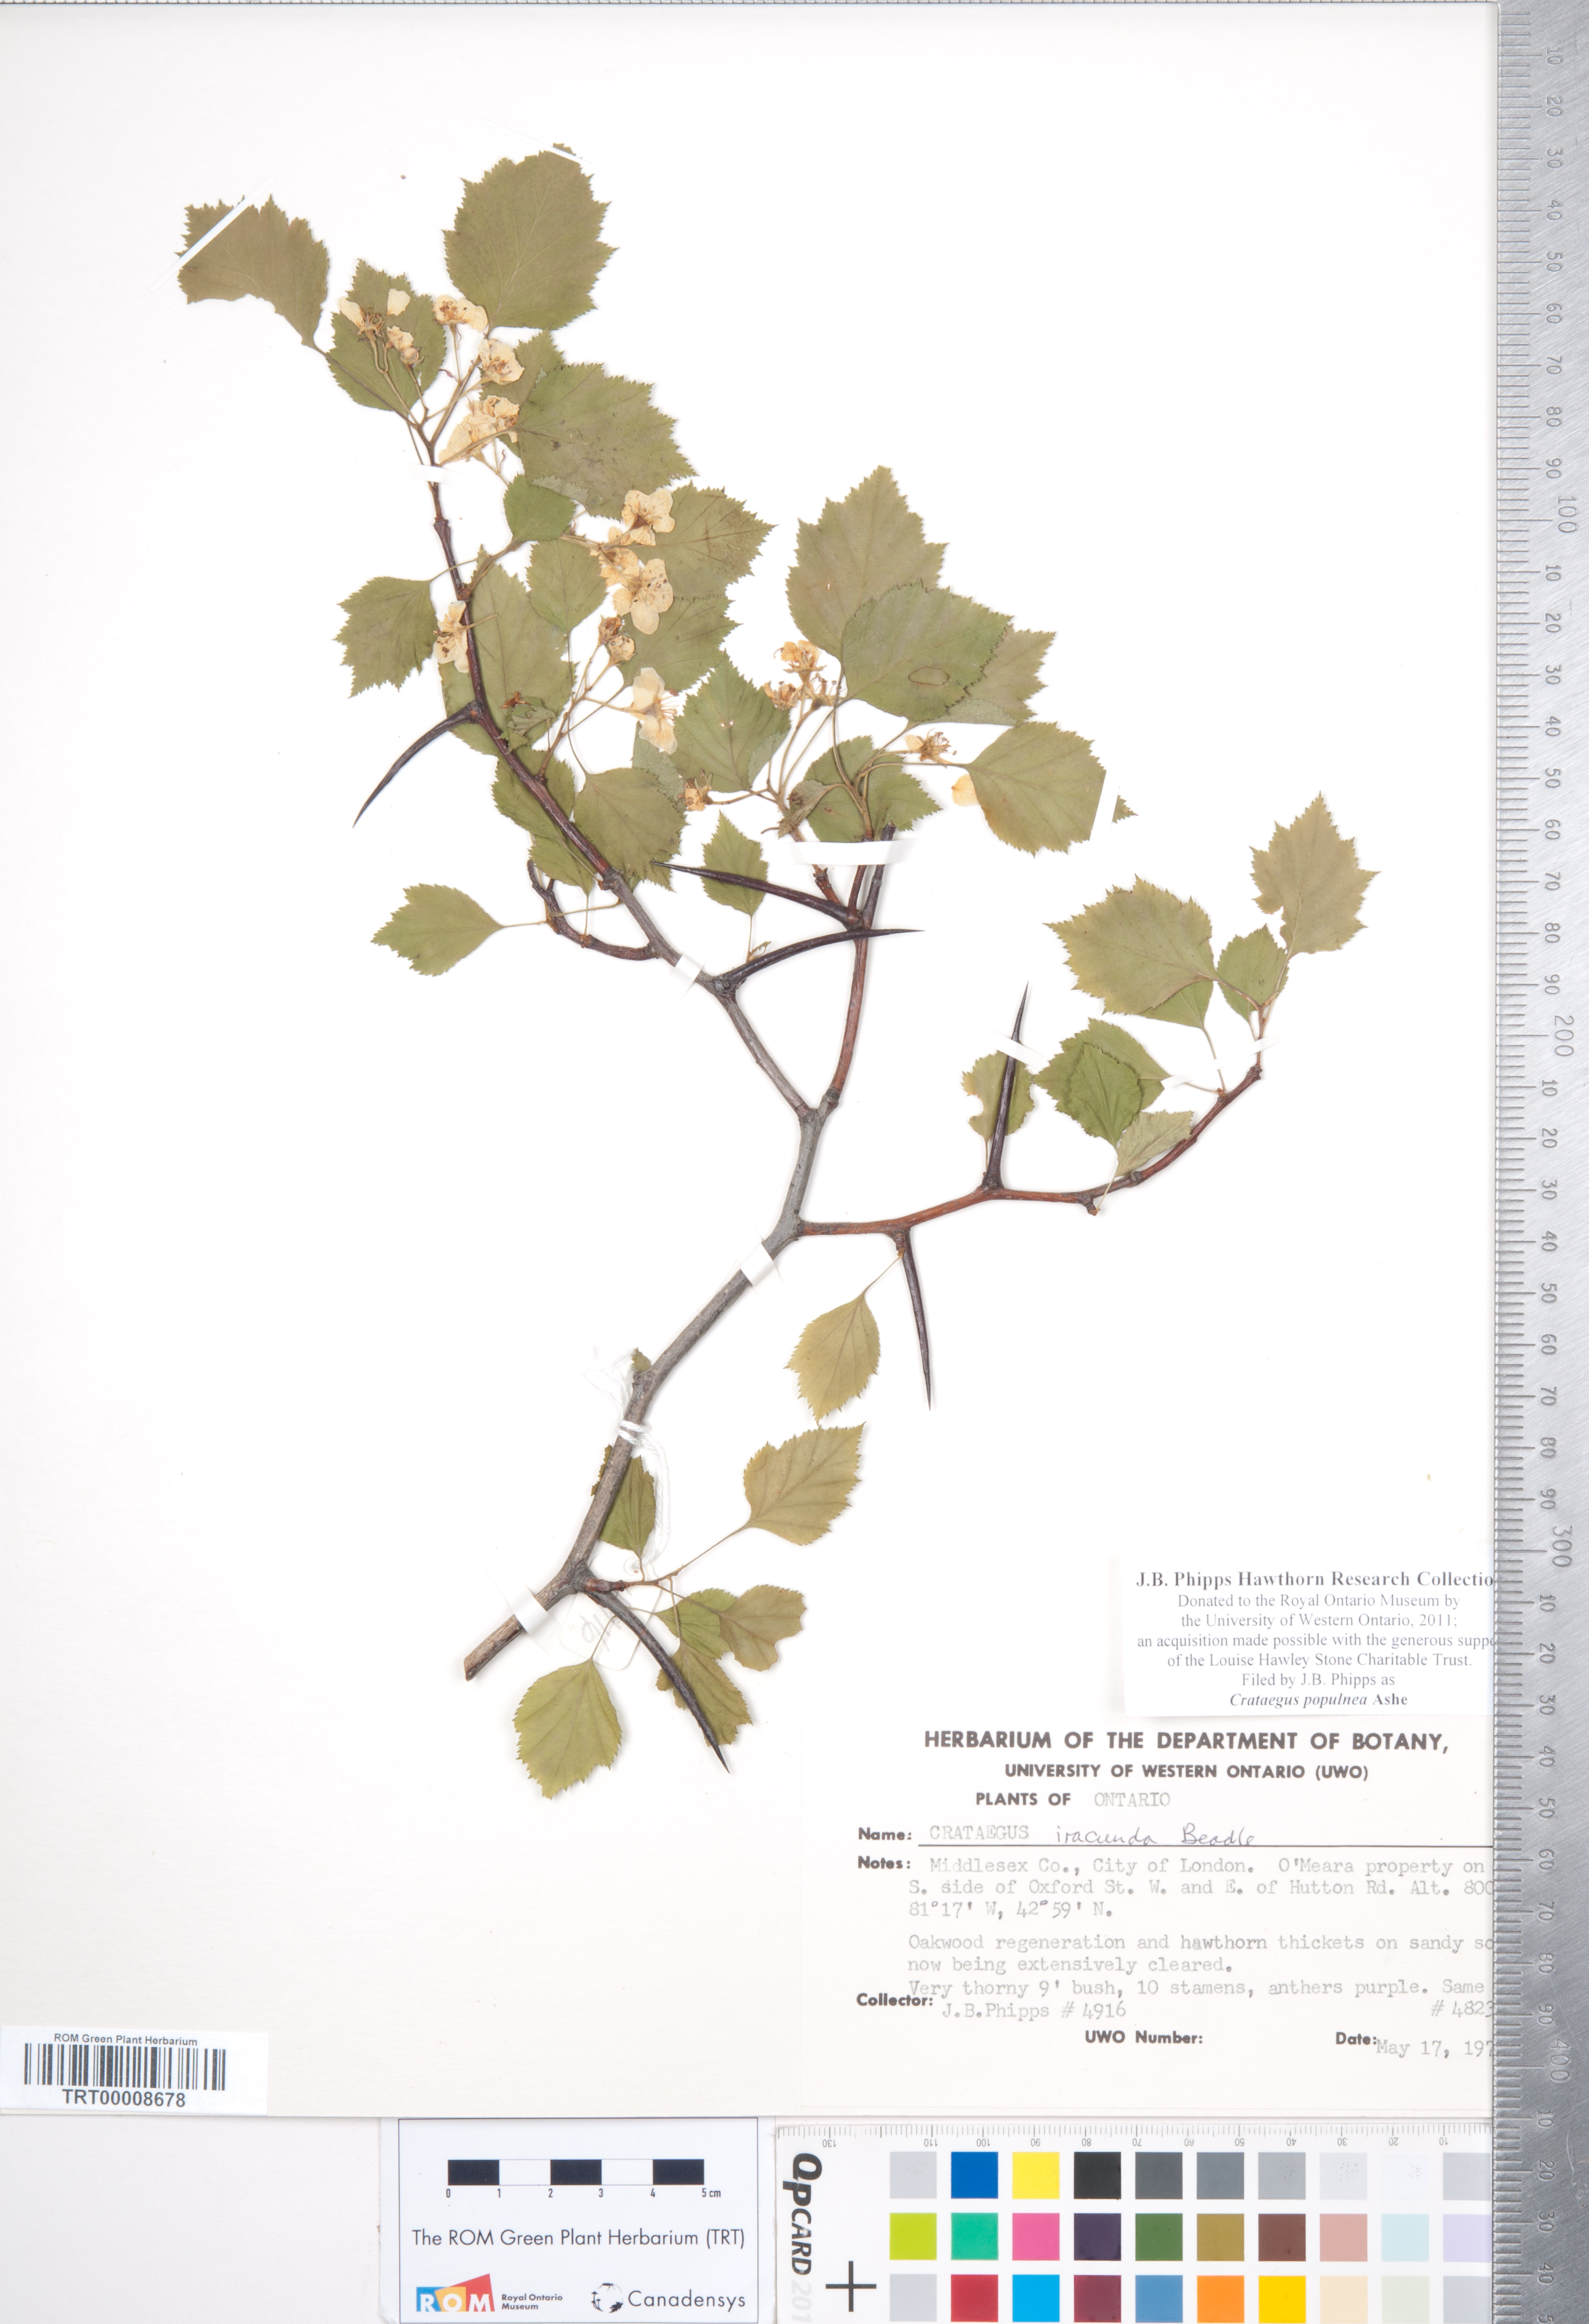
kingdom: Plantae
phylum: Tracheophyta
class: Magnoliopsida
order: Rosales
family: Rosaceae
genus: Crataegus
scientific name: Crataegus populnea
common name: Adorned hawthorn
